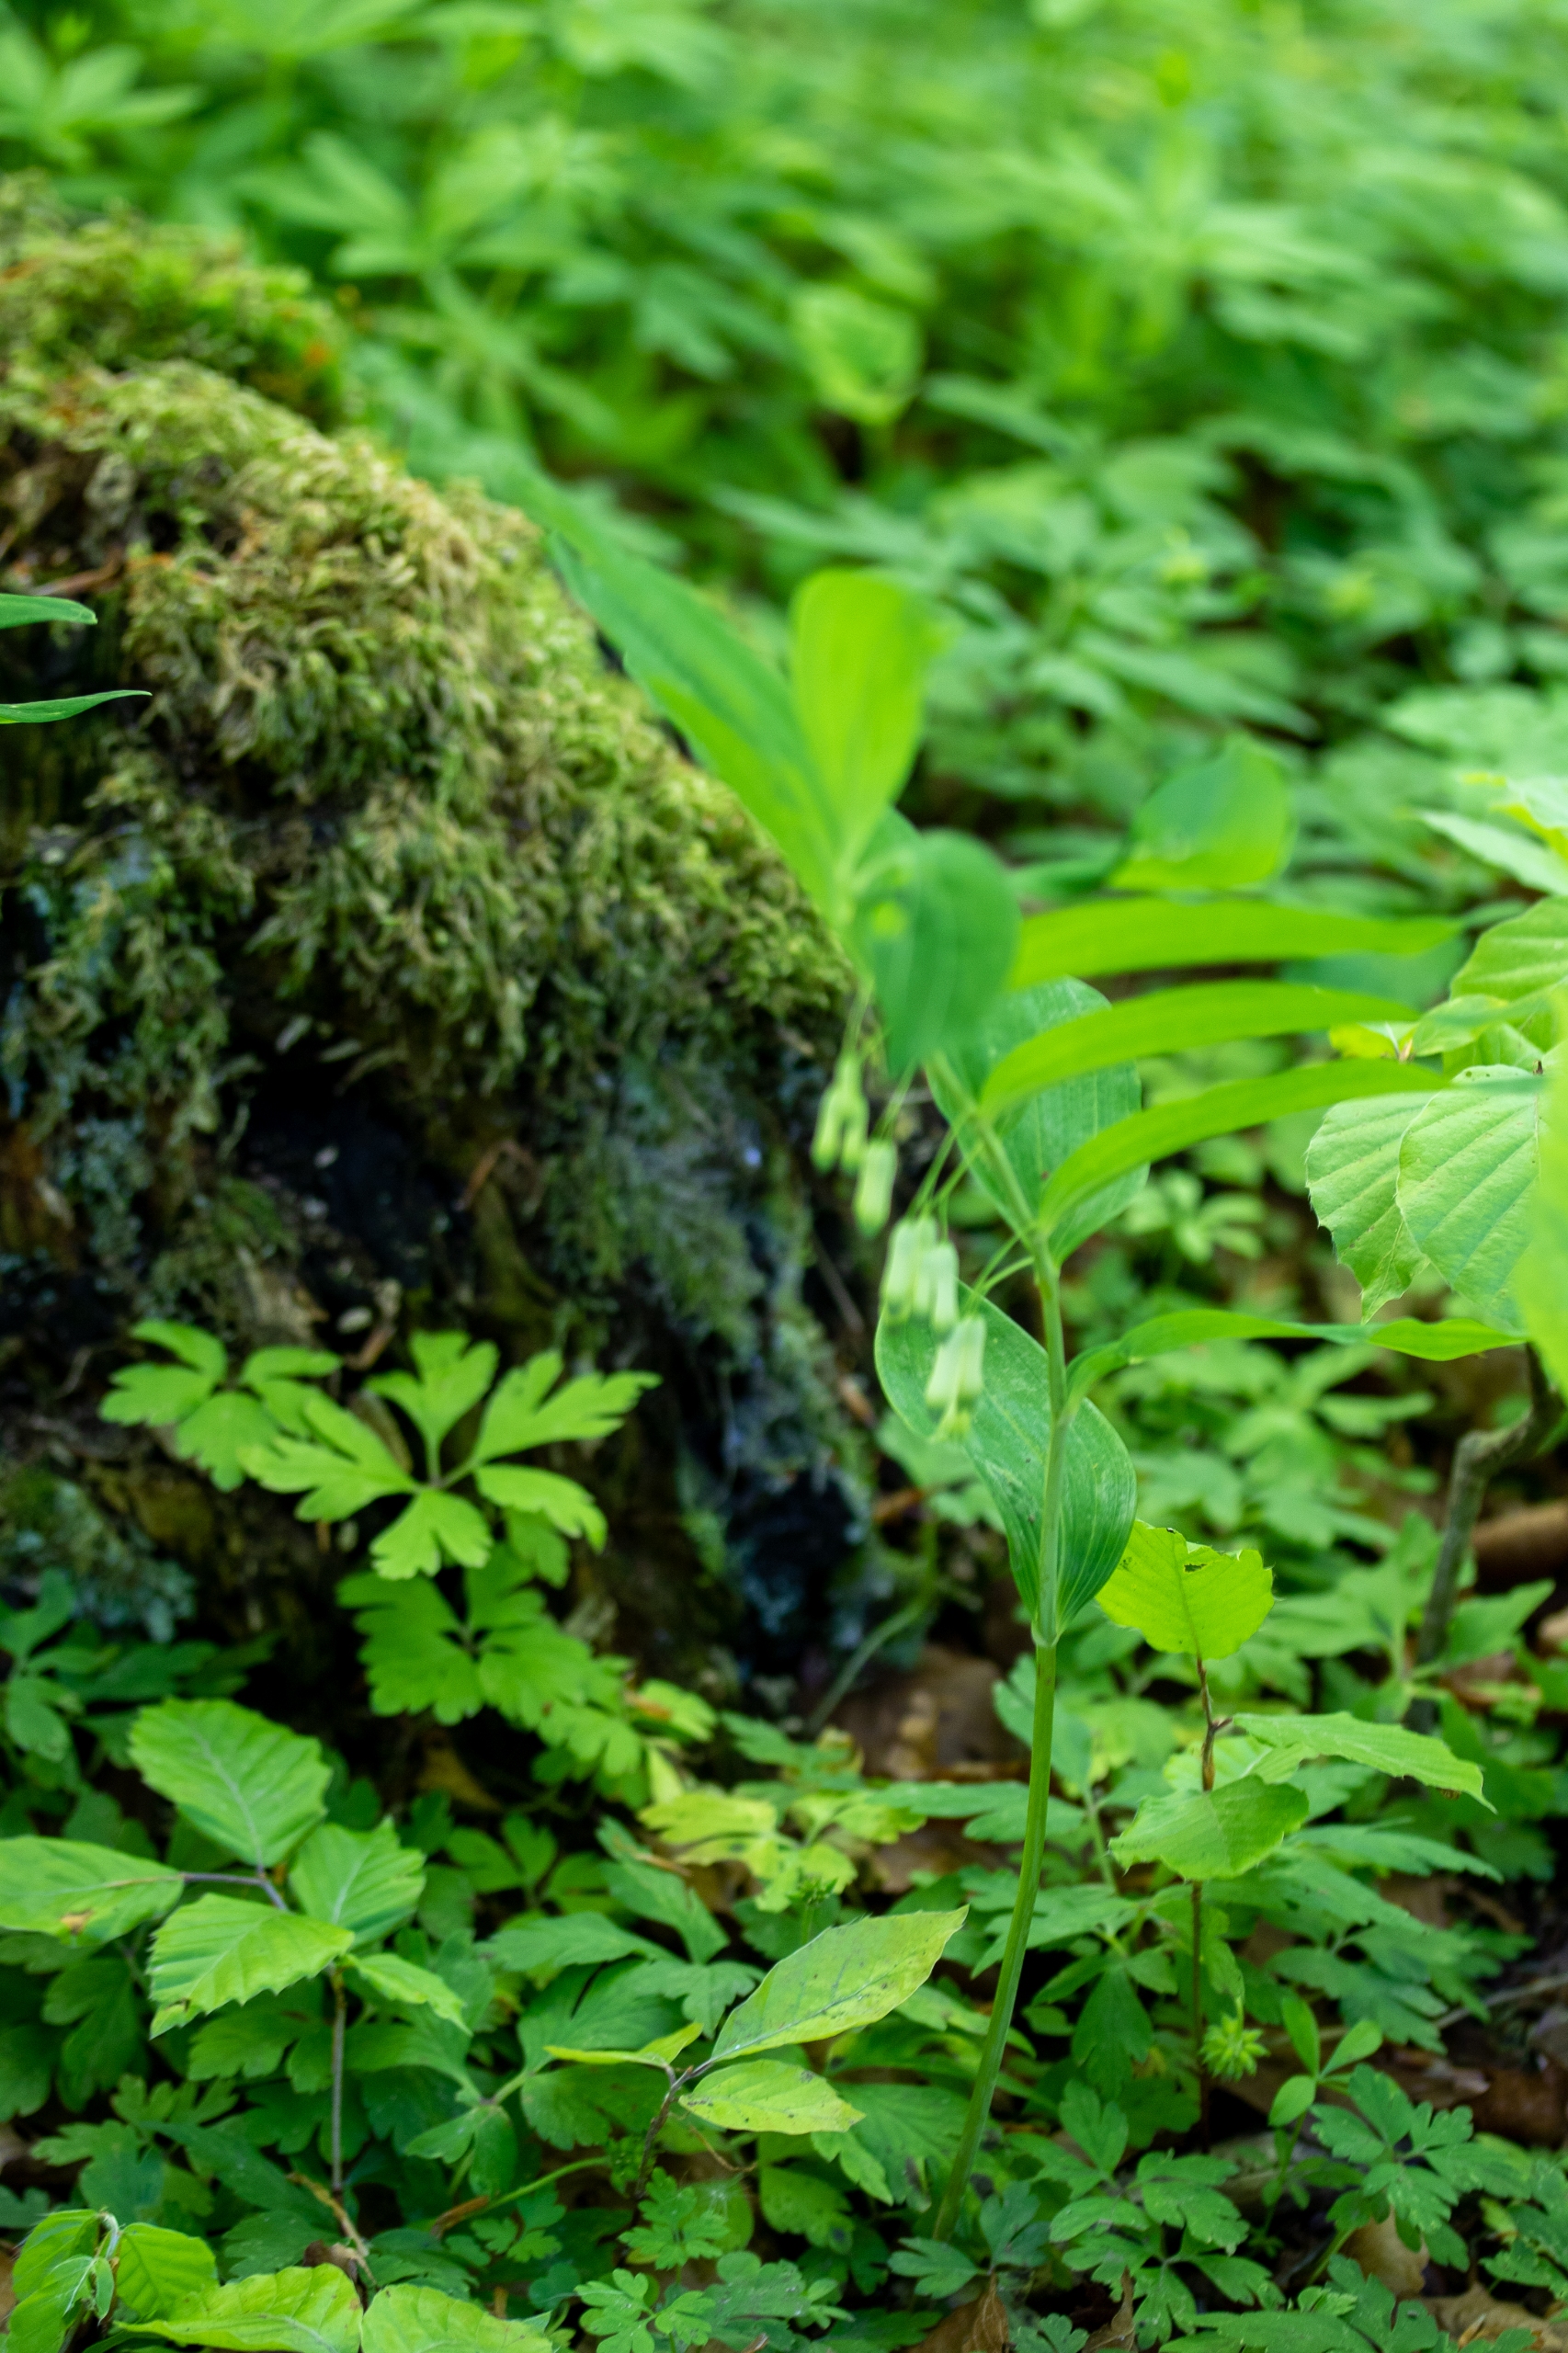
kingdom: Plantae
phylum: Tracheophyta
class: Liliopsida
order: Asparagales
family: Asparagaceae
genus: Polygonatum
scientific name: Polygonatum multiflorum
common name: Stor konval
